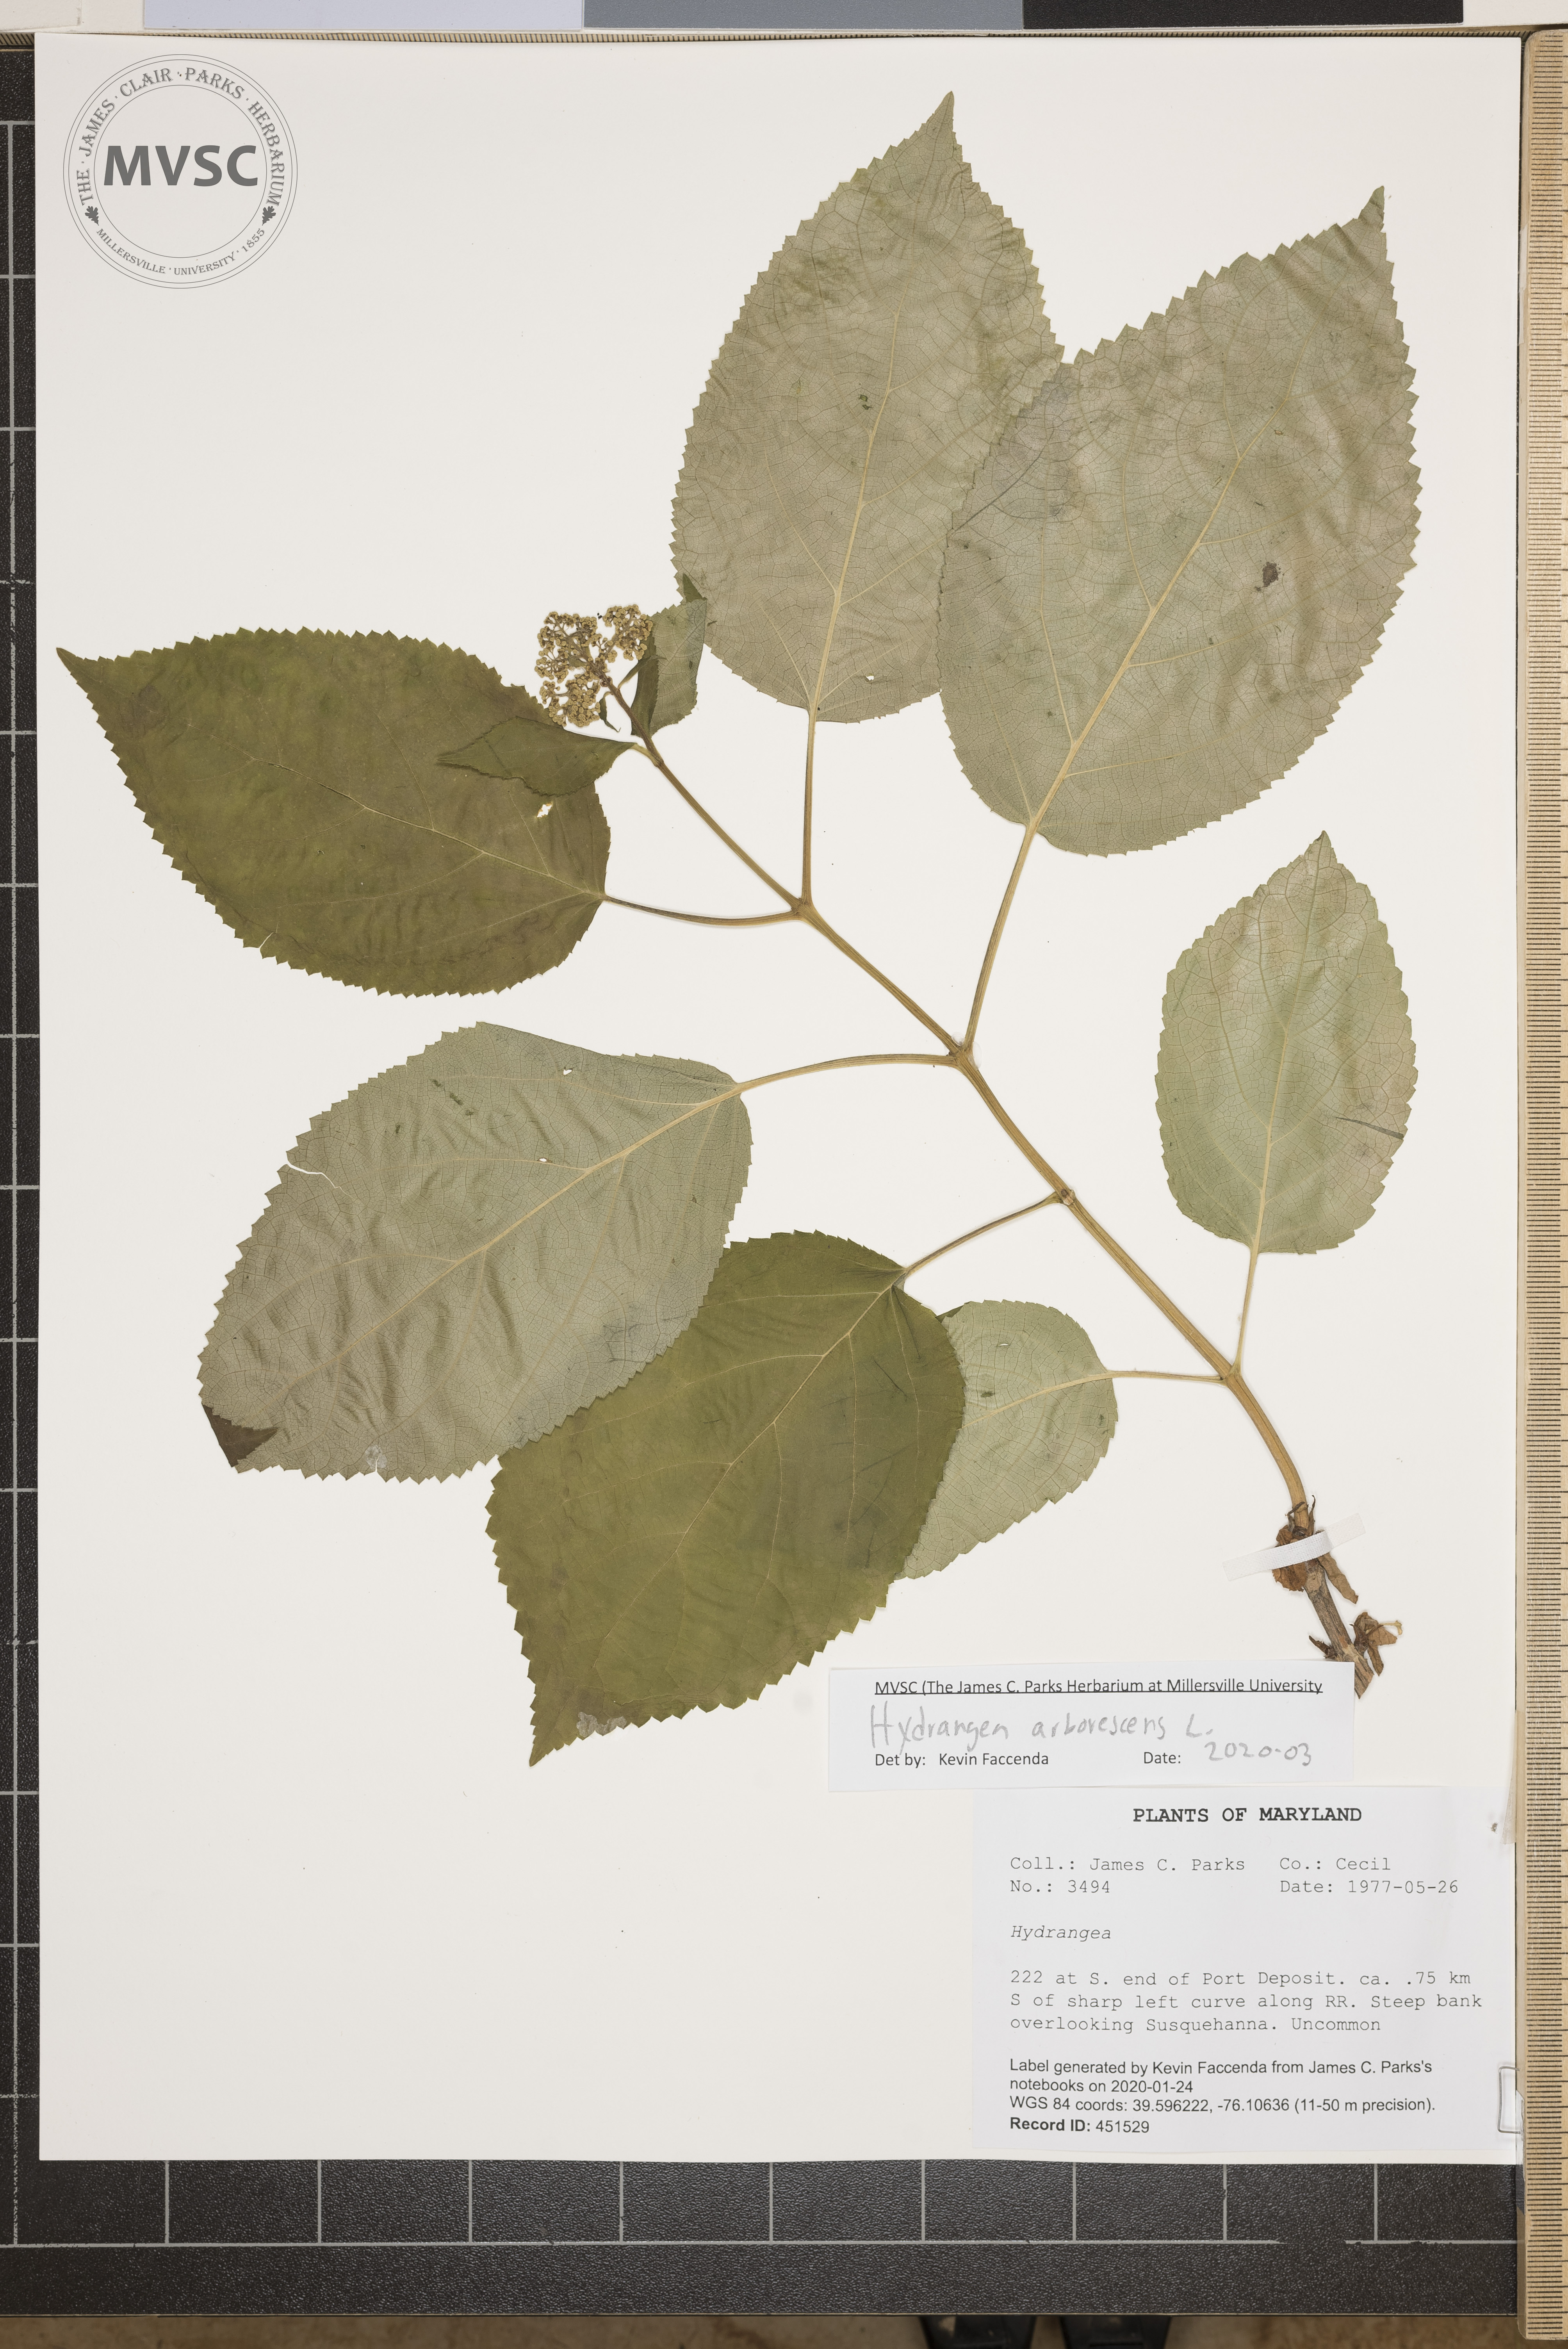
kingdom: Plantae
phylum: Tracheophyta
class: Magnoliopsida
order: Cornales
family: Hydrangeaceae
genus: Hydrangea
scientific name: Hydrangea arborescens
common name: Sevenbark
